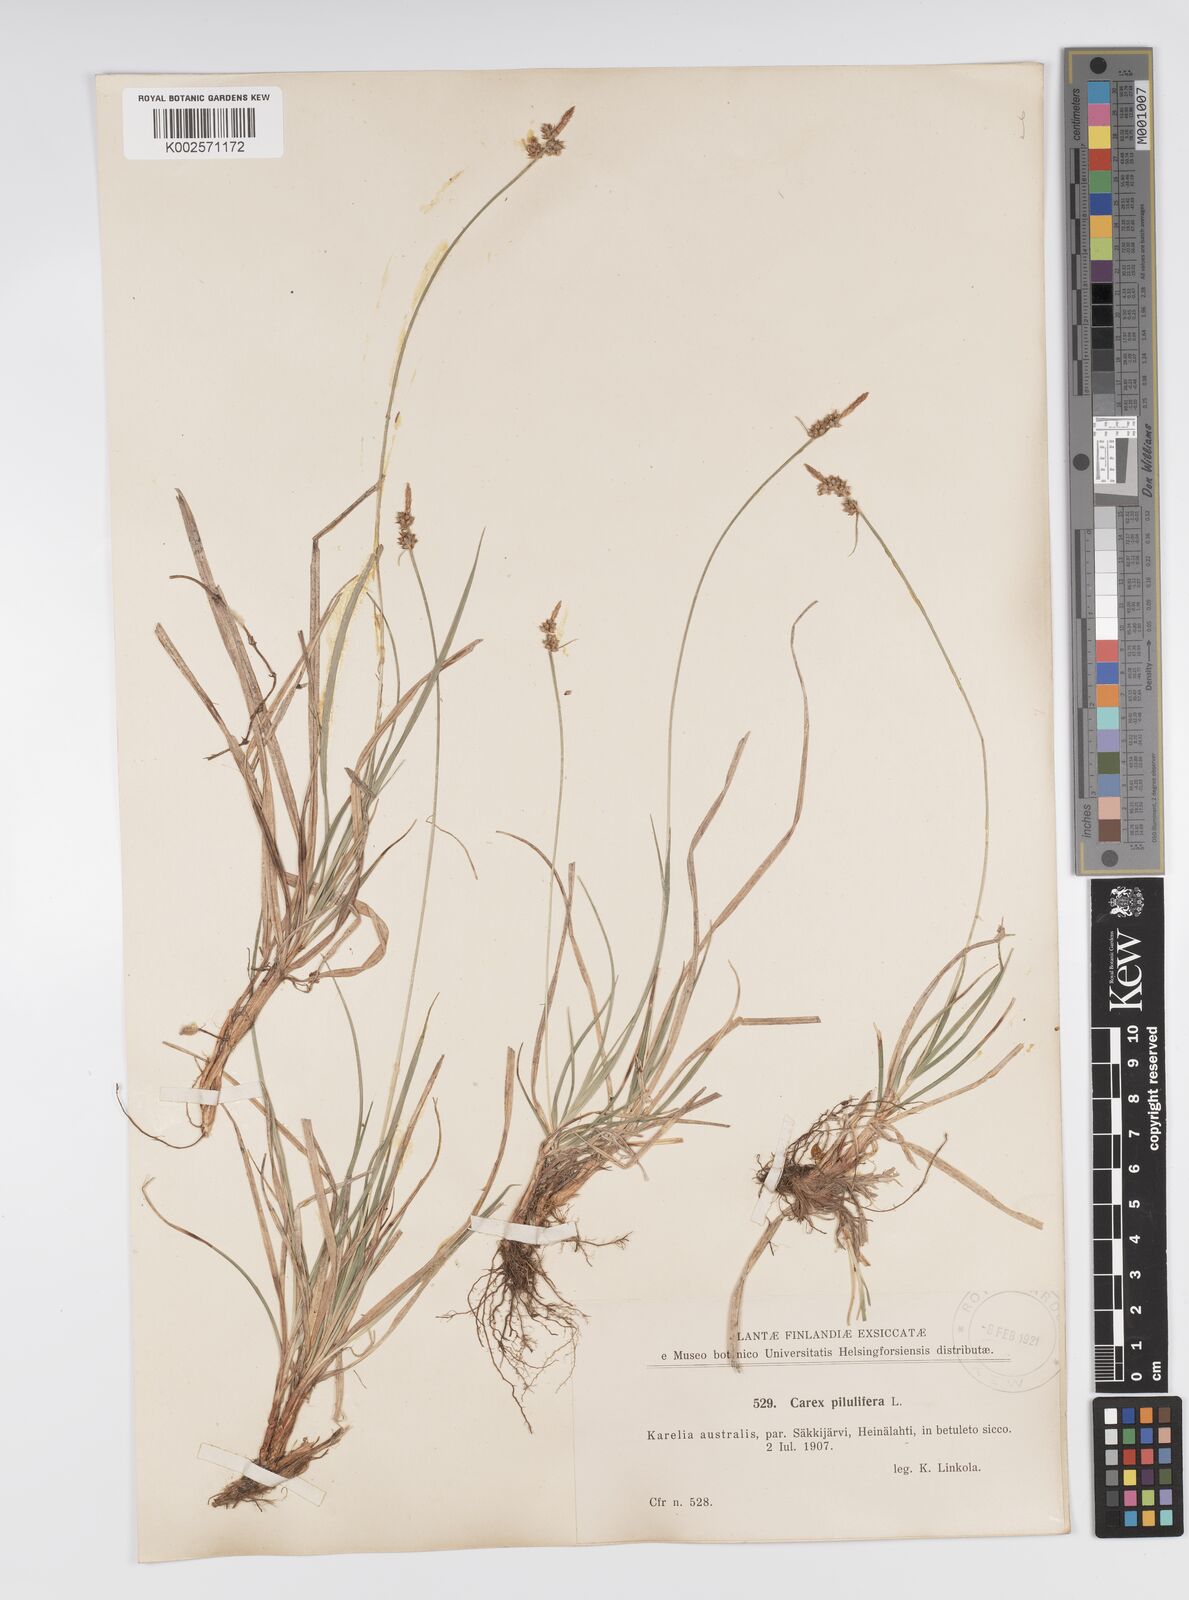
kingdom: Plantae
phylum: Tracheophyta
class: Liliopsida
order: Poales
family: Cyperaceae
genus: Carex
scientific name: Carex pilulifera
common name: Pill sedge
